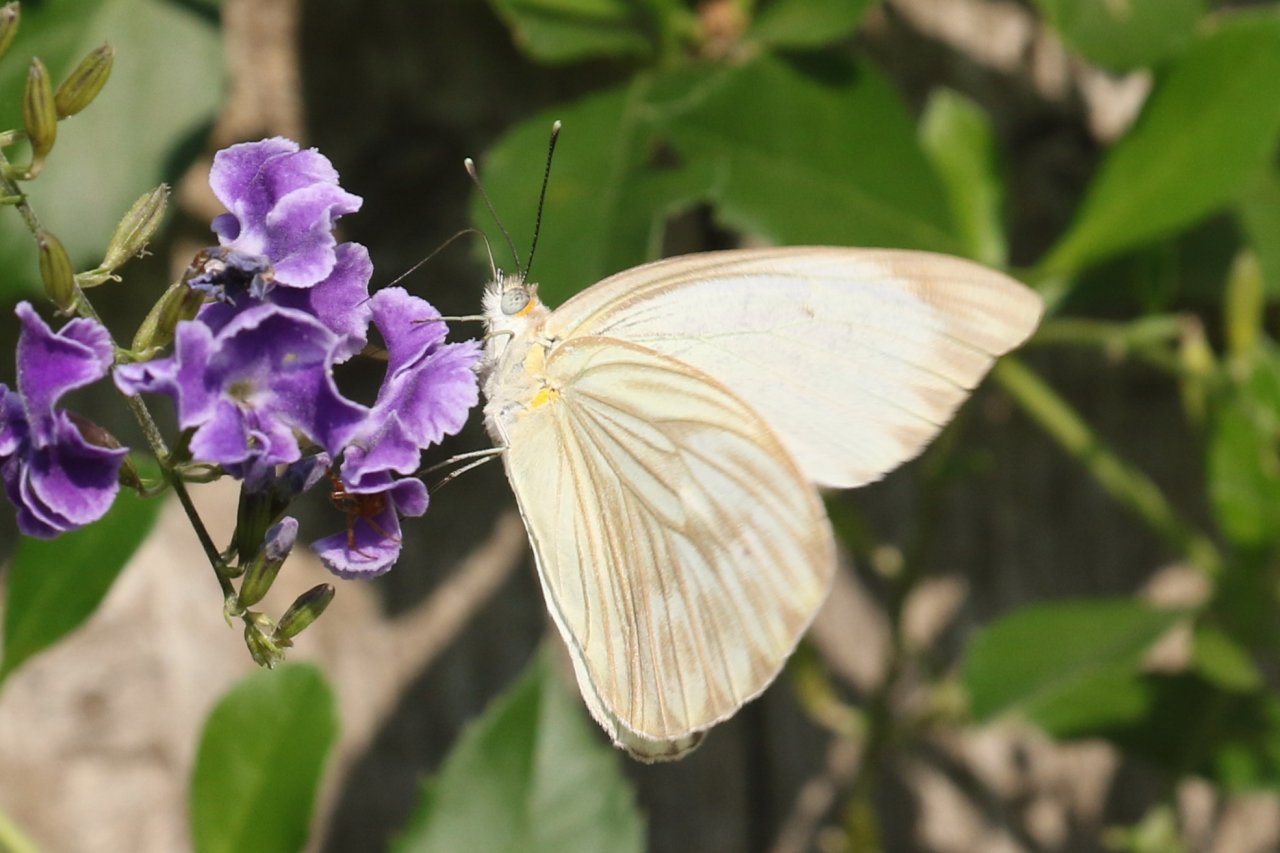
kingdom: Animalia
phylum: Arthropoda
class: Insecta
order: Lepidoptera
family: Pieridae
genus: Ascia
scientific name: Ascia monuste
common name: Great Southern White
